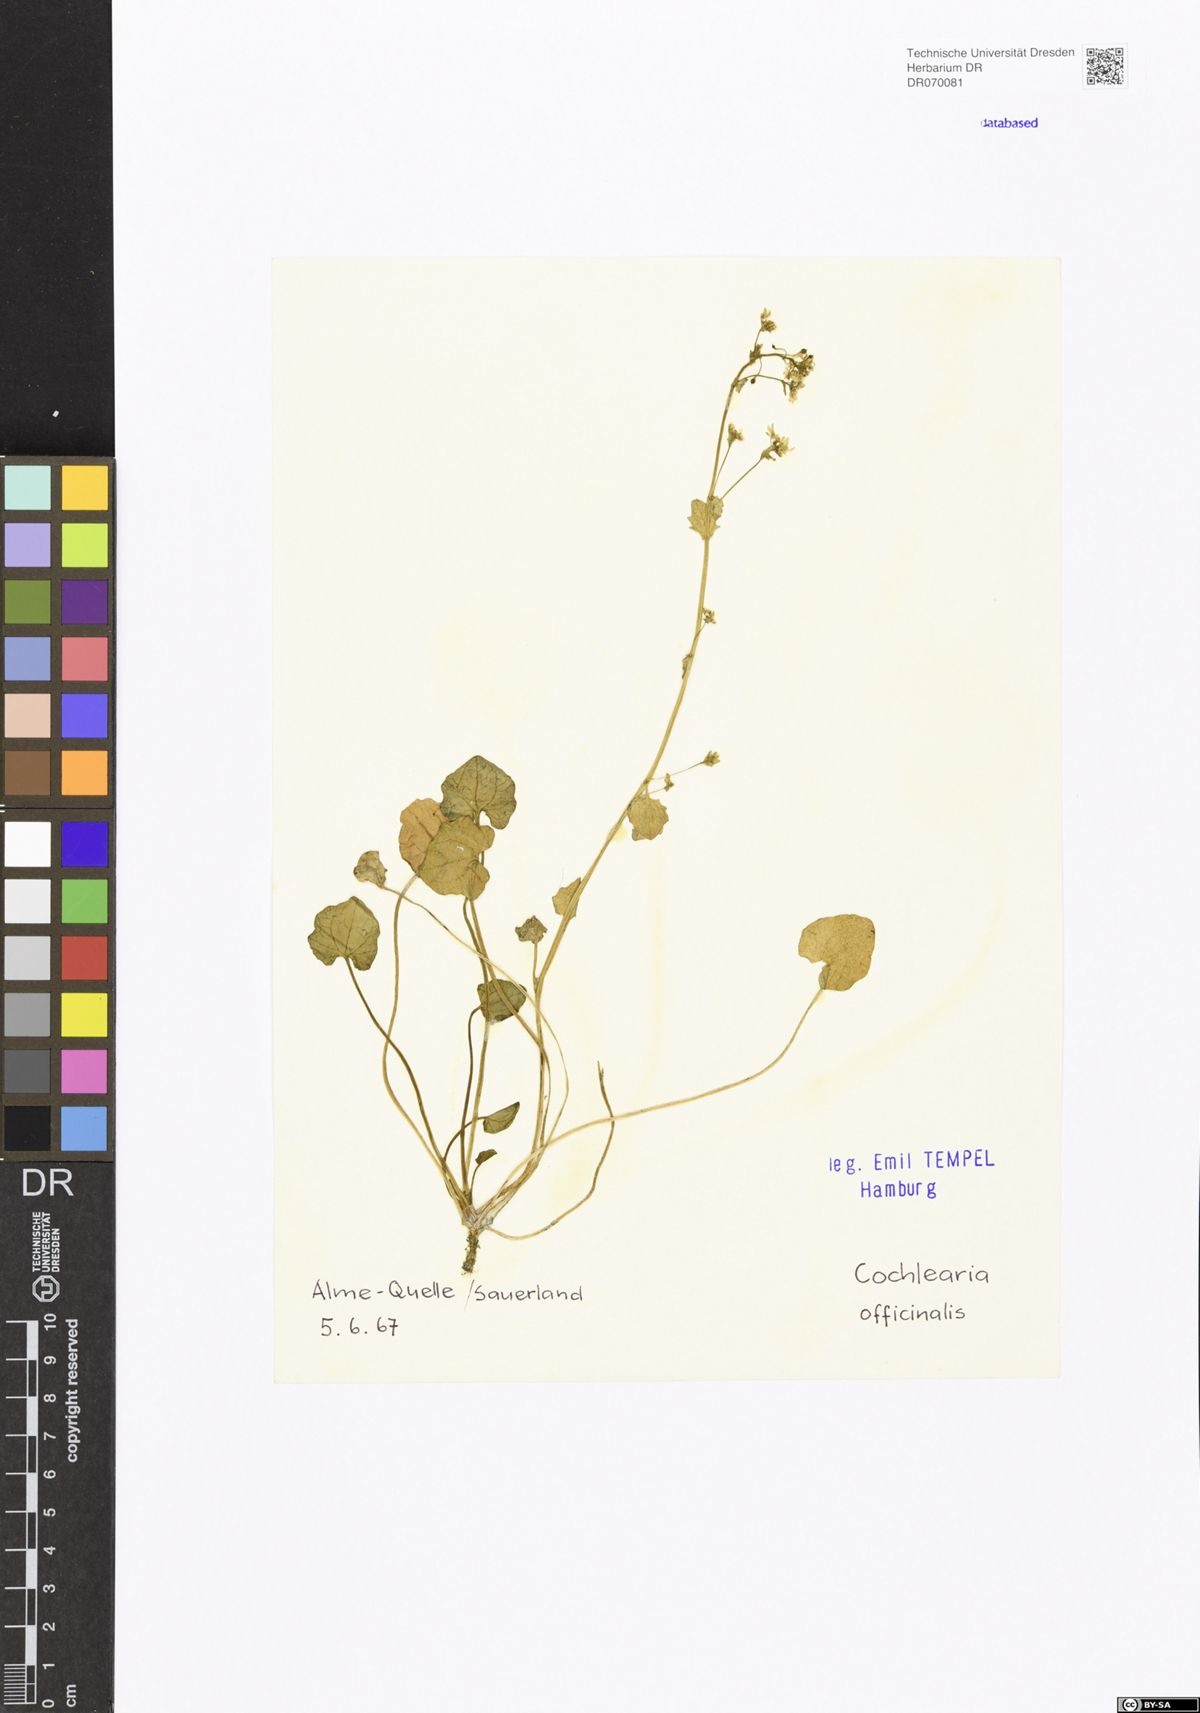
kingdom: Plantae
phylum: Tracheophyta
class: Magnoliopsida
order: Brassicales
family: Brassicaceae
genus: Cochlearia
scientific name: Cochlearia officinalis
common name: Scurvy-grass
